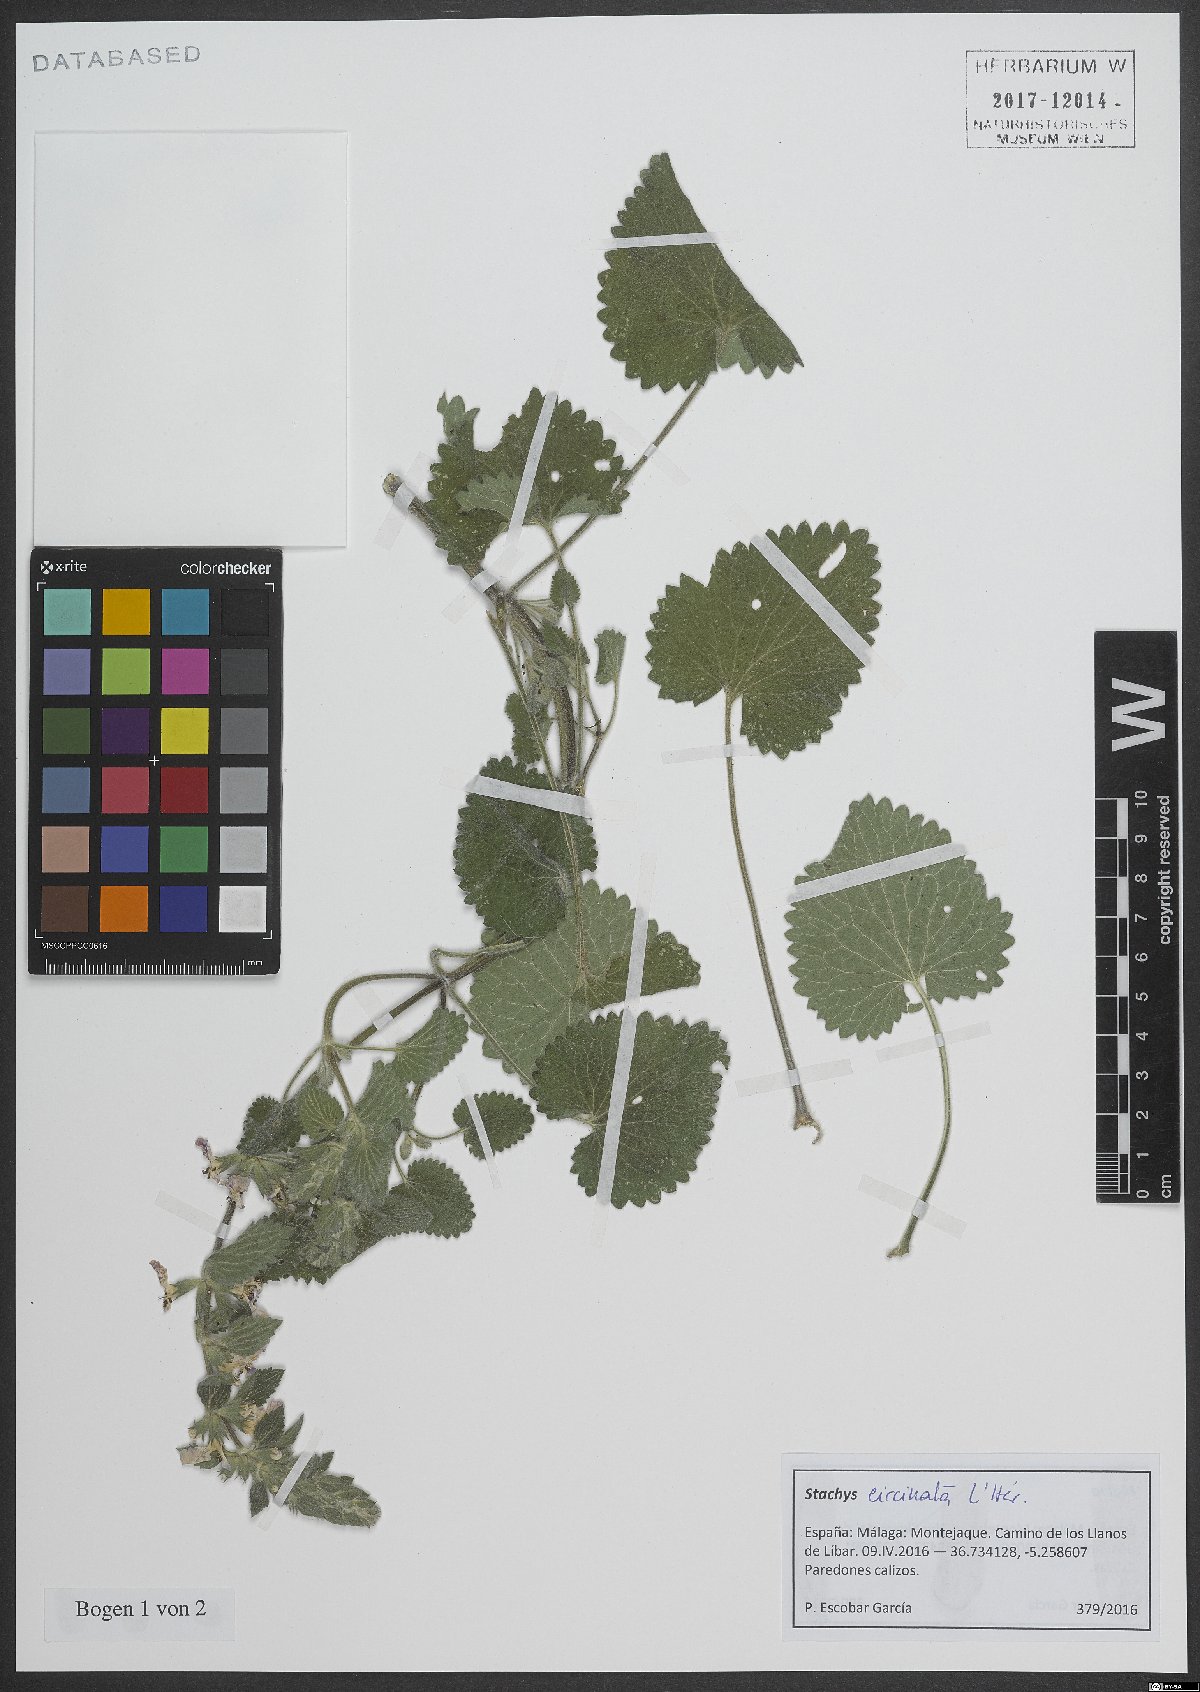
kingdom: Plantae
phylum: Tracheophyta
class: Magnoliopsida
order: Lamiales
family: Lamiaceae
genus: Stachys
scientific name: Stachys circinata
